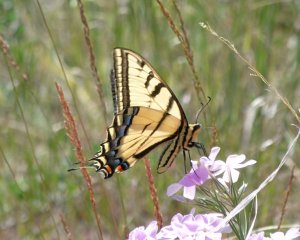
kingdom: Animalia
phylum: Arthropoda
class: Insecta
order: Lepidoptera
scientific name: Lepidoptera
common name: Butterflies
